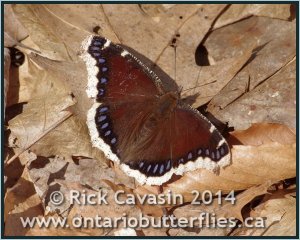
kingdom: Animalia
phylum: Arthropoda
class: Insecta
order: Lepidoptera
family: Nymphalidae
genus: Nymphalis
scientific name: Nymphalis antiopa
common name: Mourning Cloak
